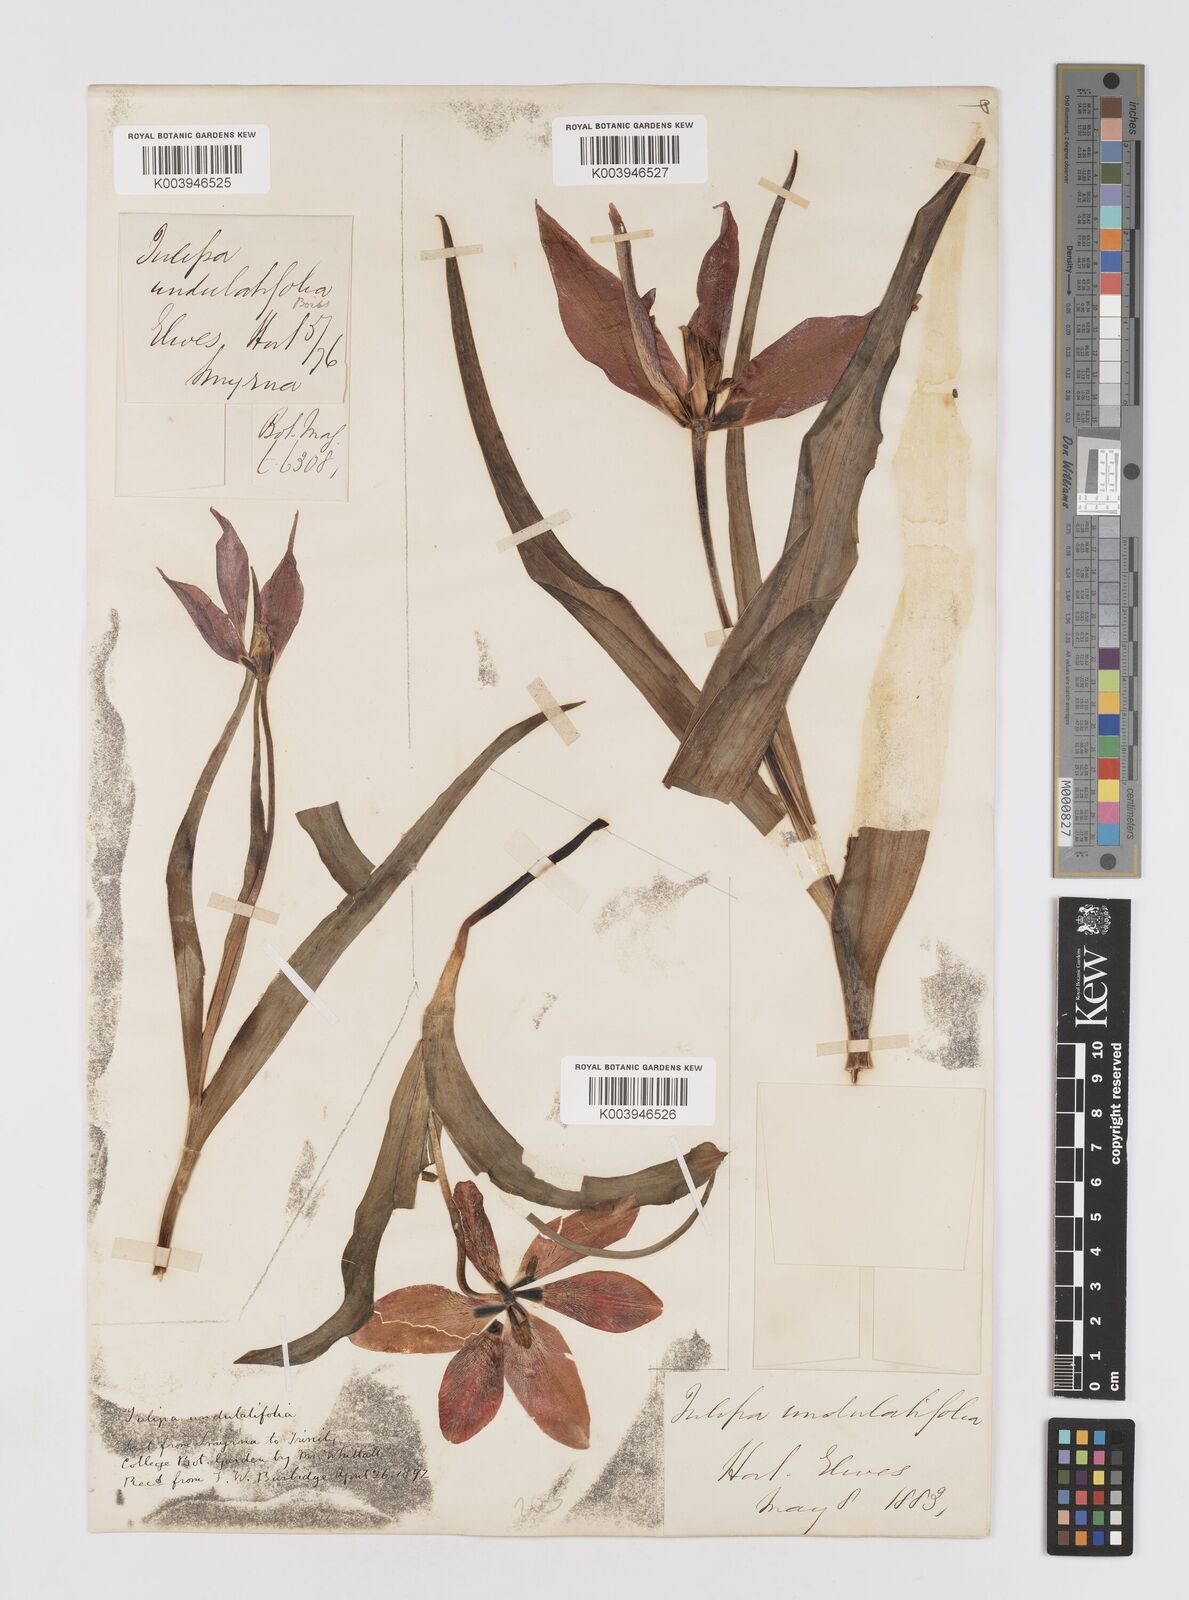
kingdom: Plantae
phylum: Tracheophyta
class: Liliopsida
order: Liliales
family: Liliaceae
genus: Tulipa
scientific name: Tulipa
